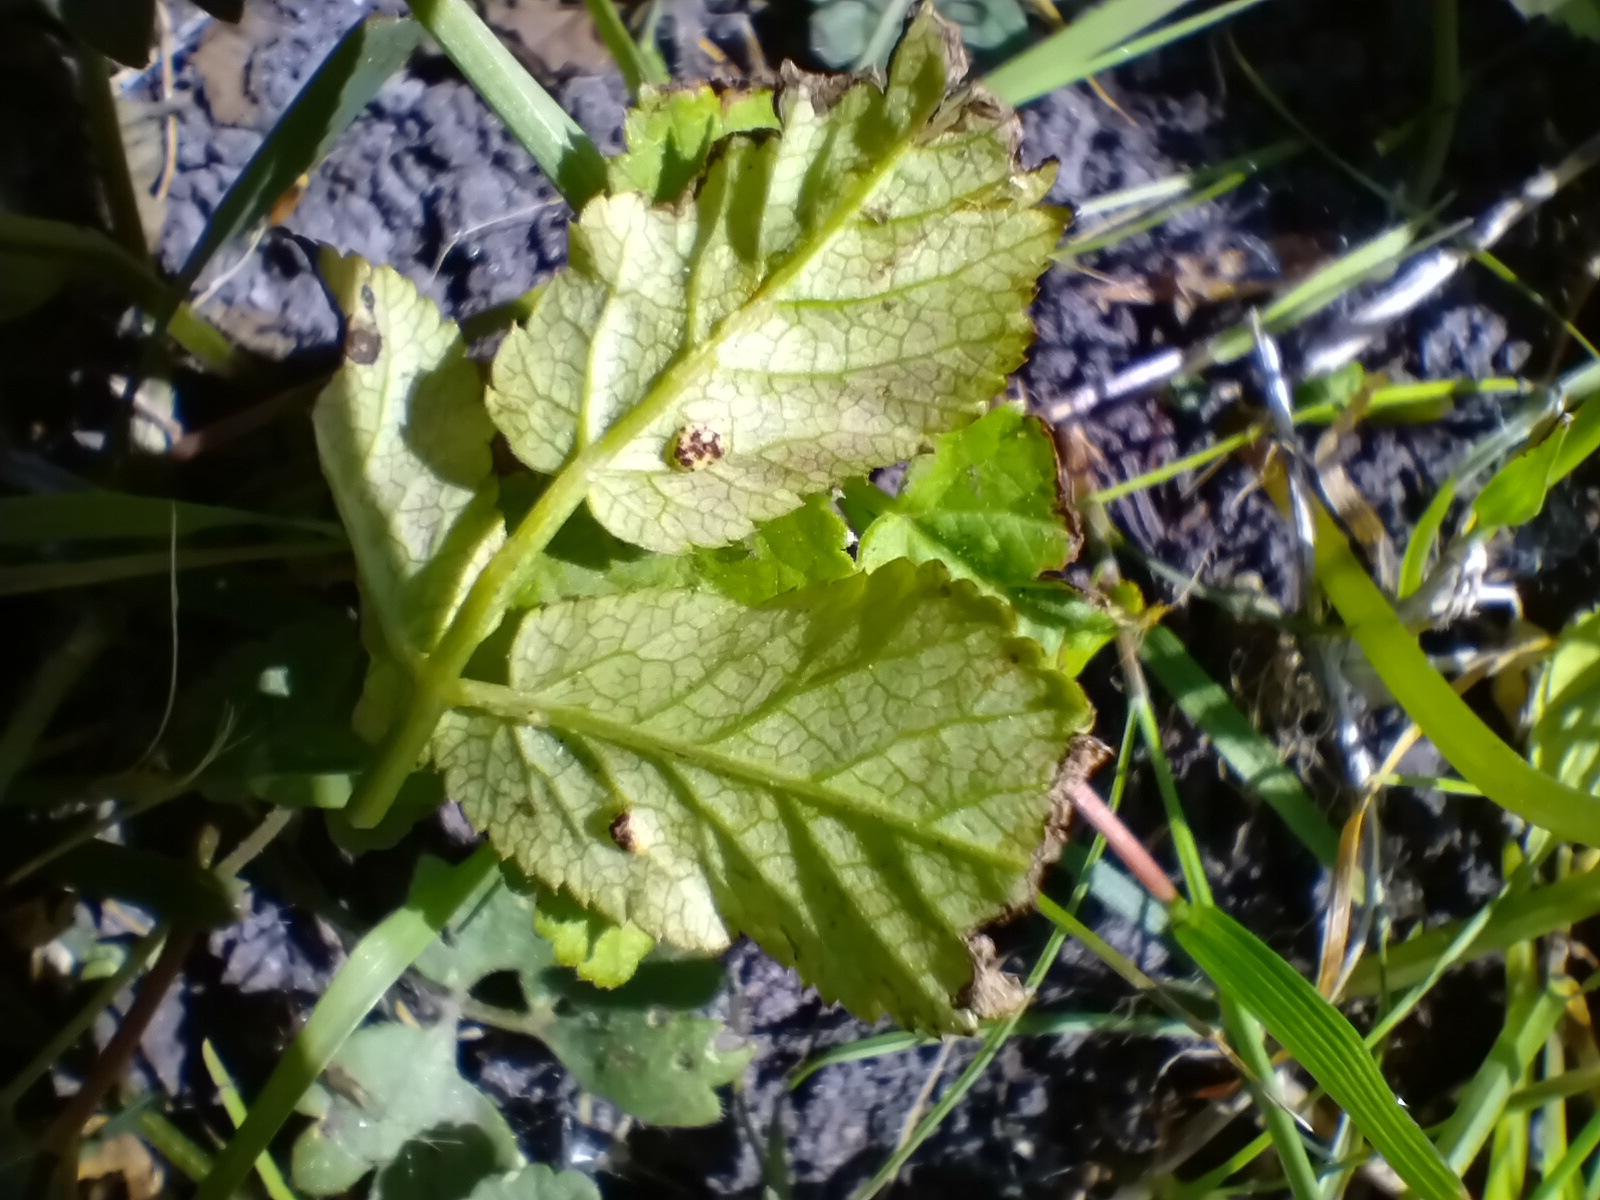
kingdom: Fungi
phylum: Basidiomycota
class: Pucciniomycetes
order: Pucciniales
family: Pucciniaceae
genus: Puccinia
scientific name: Puccinia
